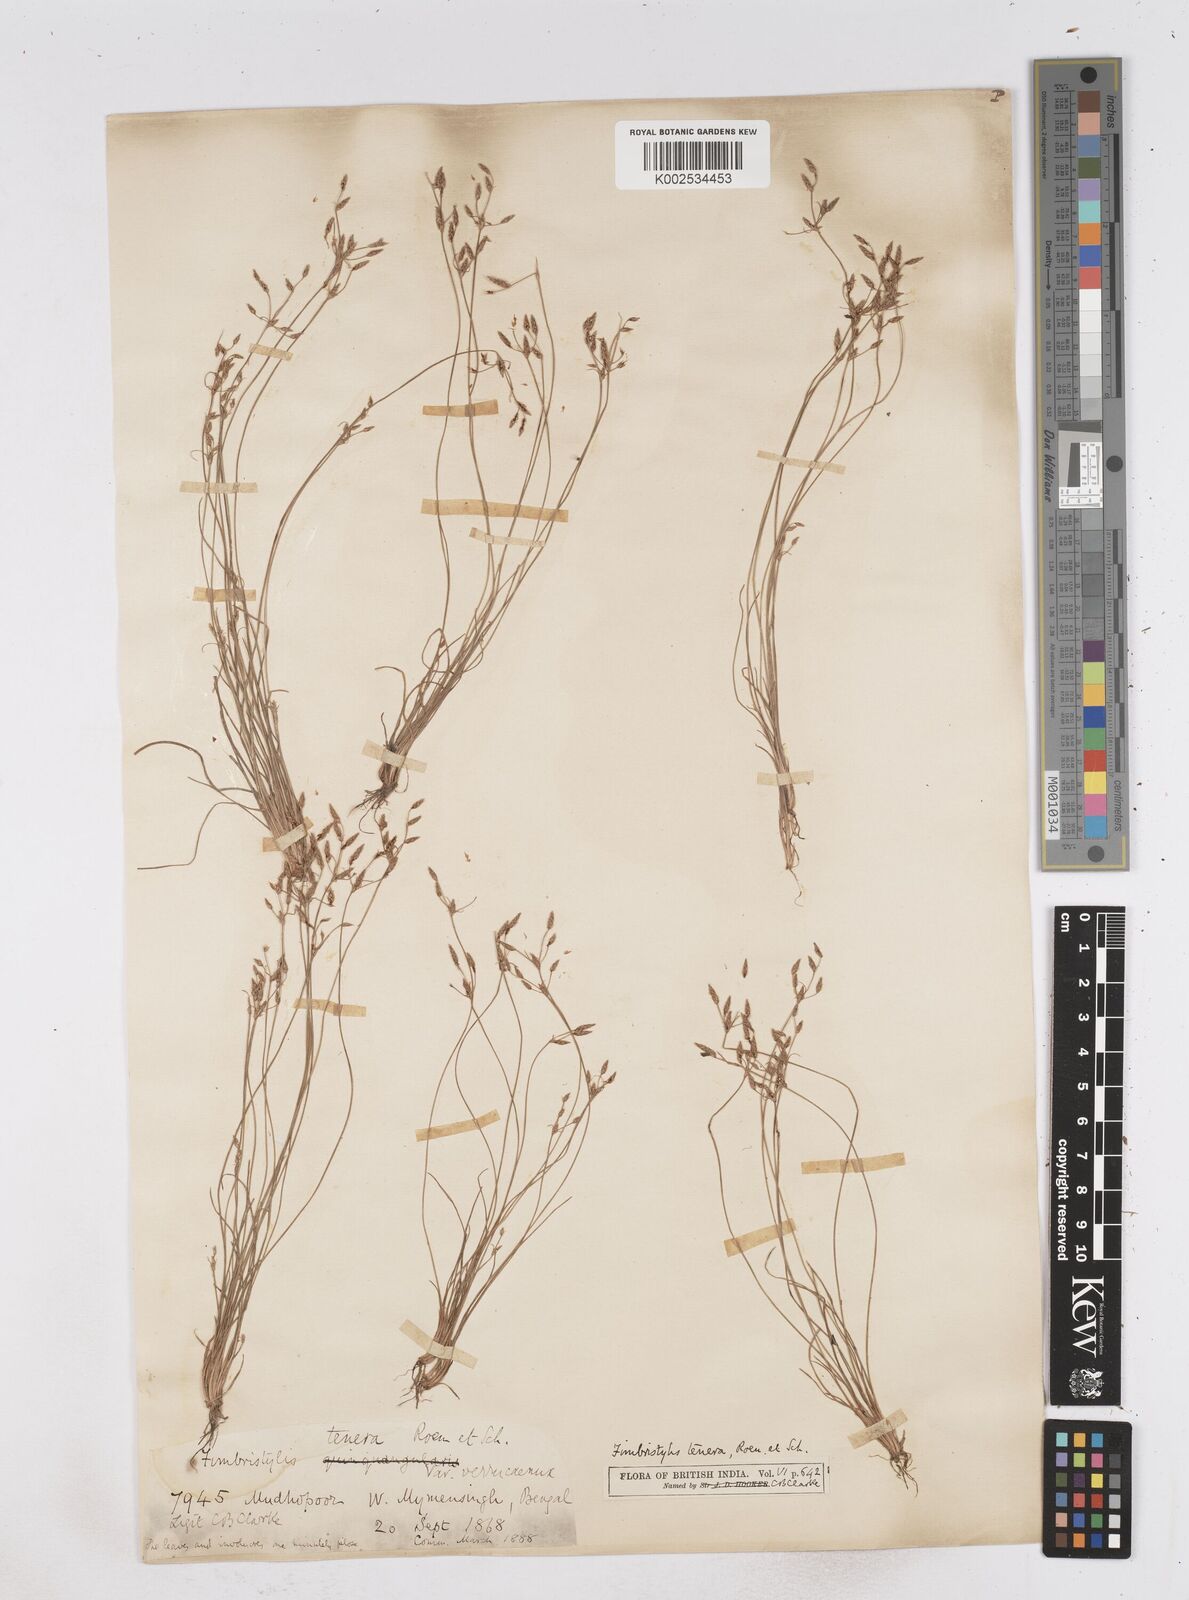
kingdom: Plantae
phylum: Tracheophyta
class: Liliopsida
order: Poales
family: Cyperaceae
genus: Fimbristylis
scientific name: Fimbristylis tenera
